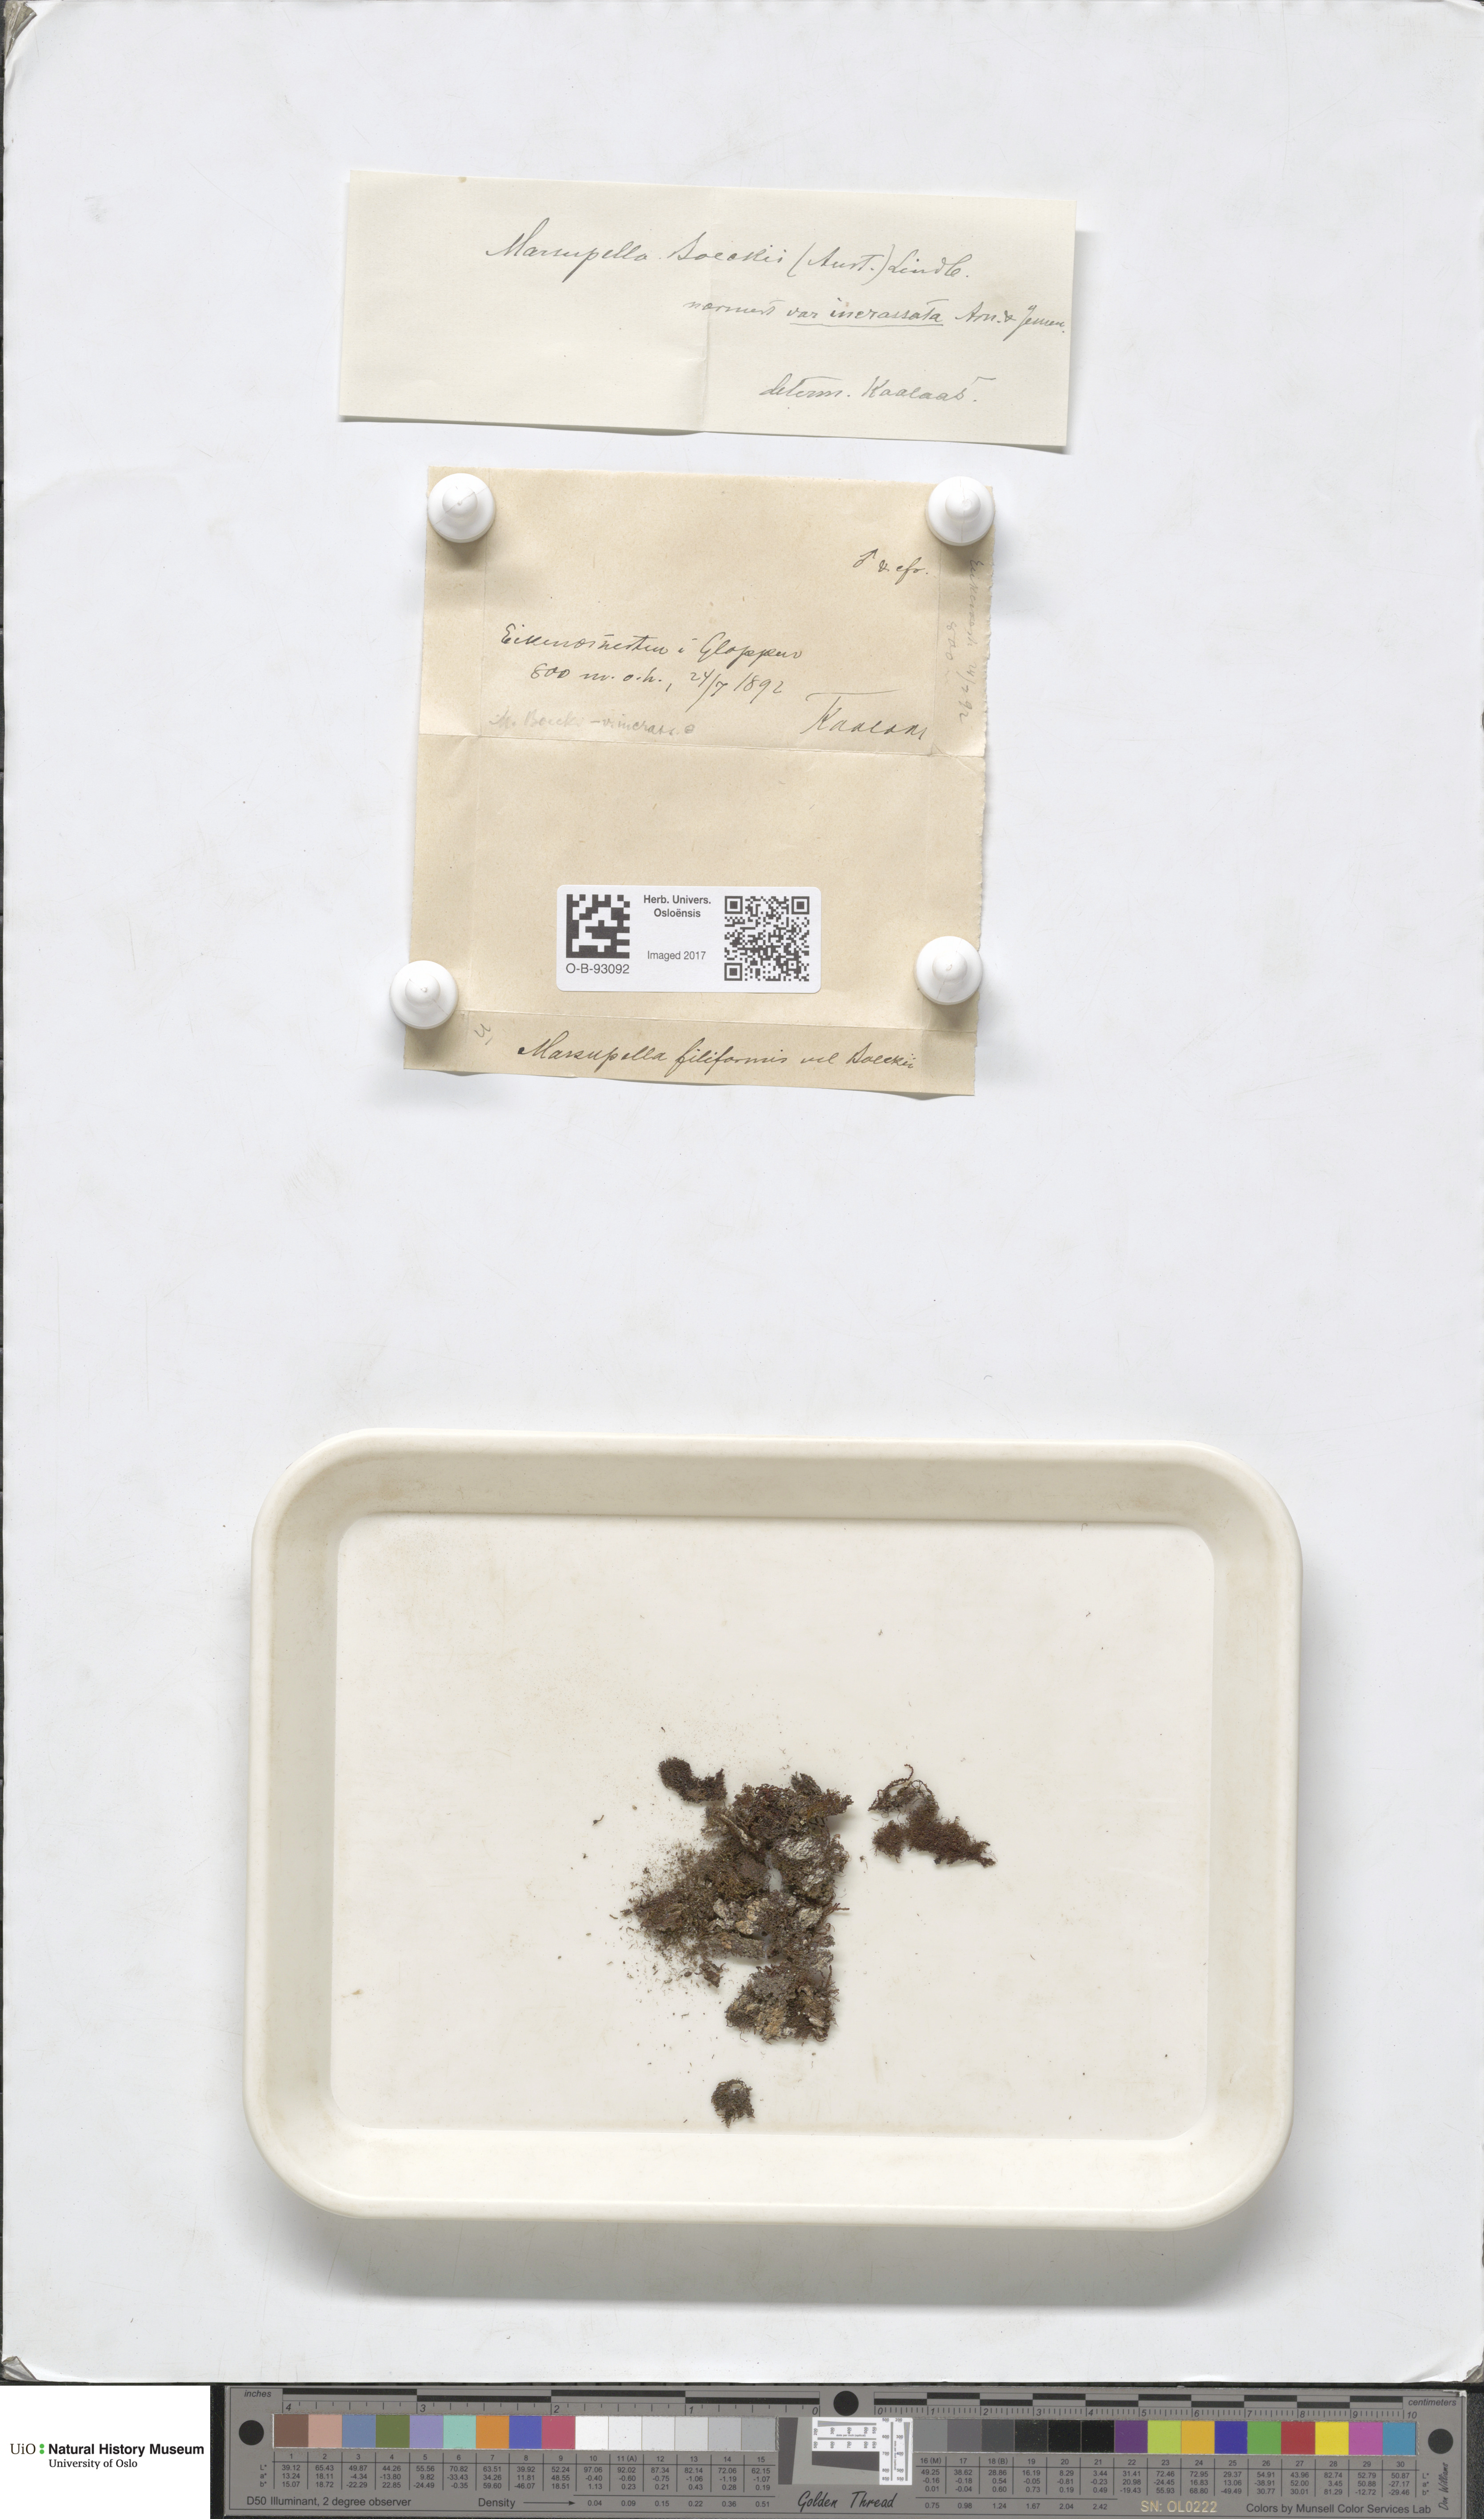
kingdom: Plantae
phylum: Marchantiophyta
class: Jungermanniopsida
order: Jungermanniales
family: Gymnomitriaceae
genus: Marsupella
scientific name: Marsupella boeckii
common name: Boeck s rustwort
